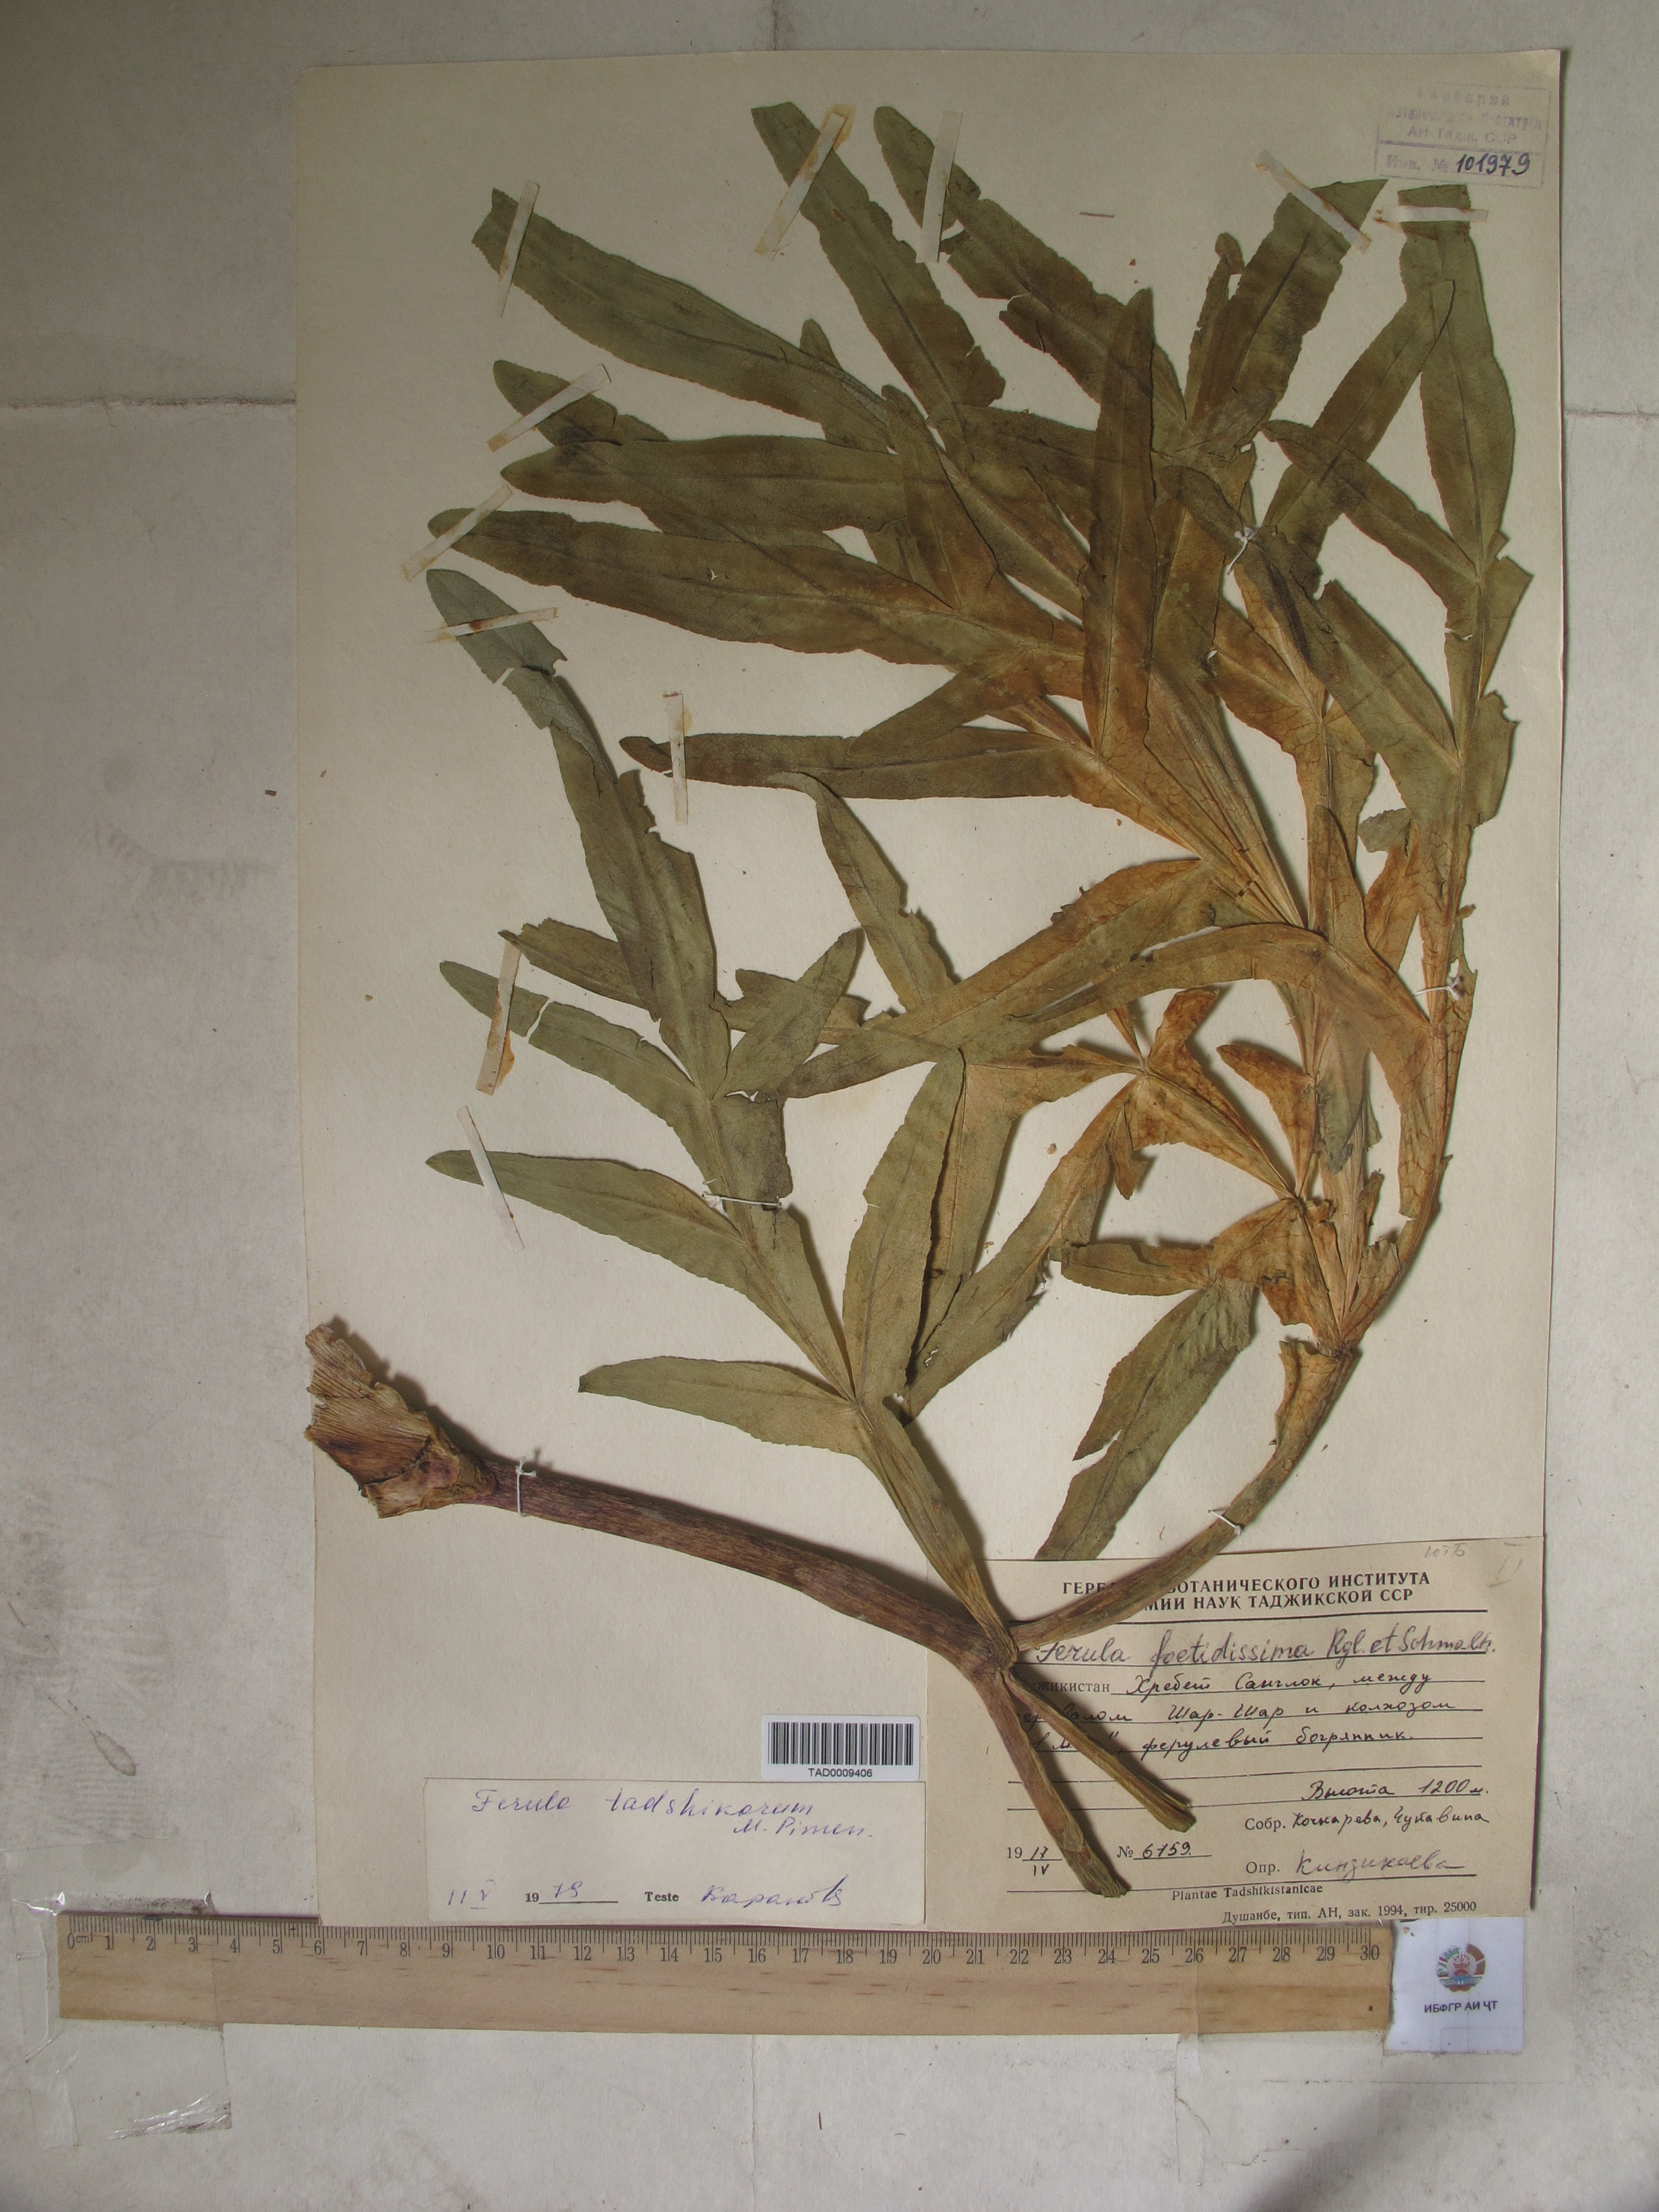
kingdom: Plantae
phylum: Tracheophyta
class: Magnoliopsida
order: Apiales
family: Apiaceae
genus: Ferula
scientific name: Ferula foetidissima
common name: Raba
